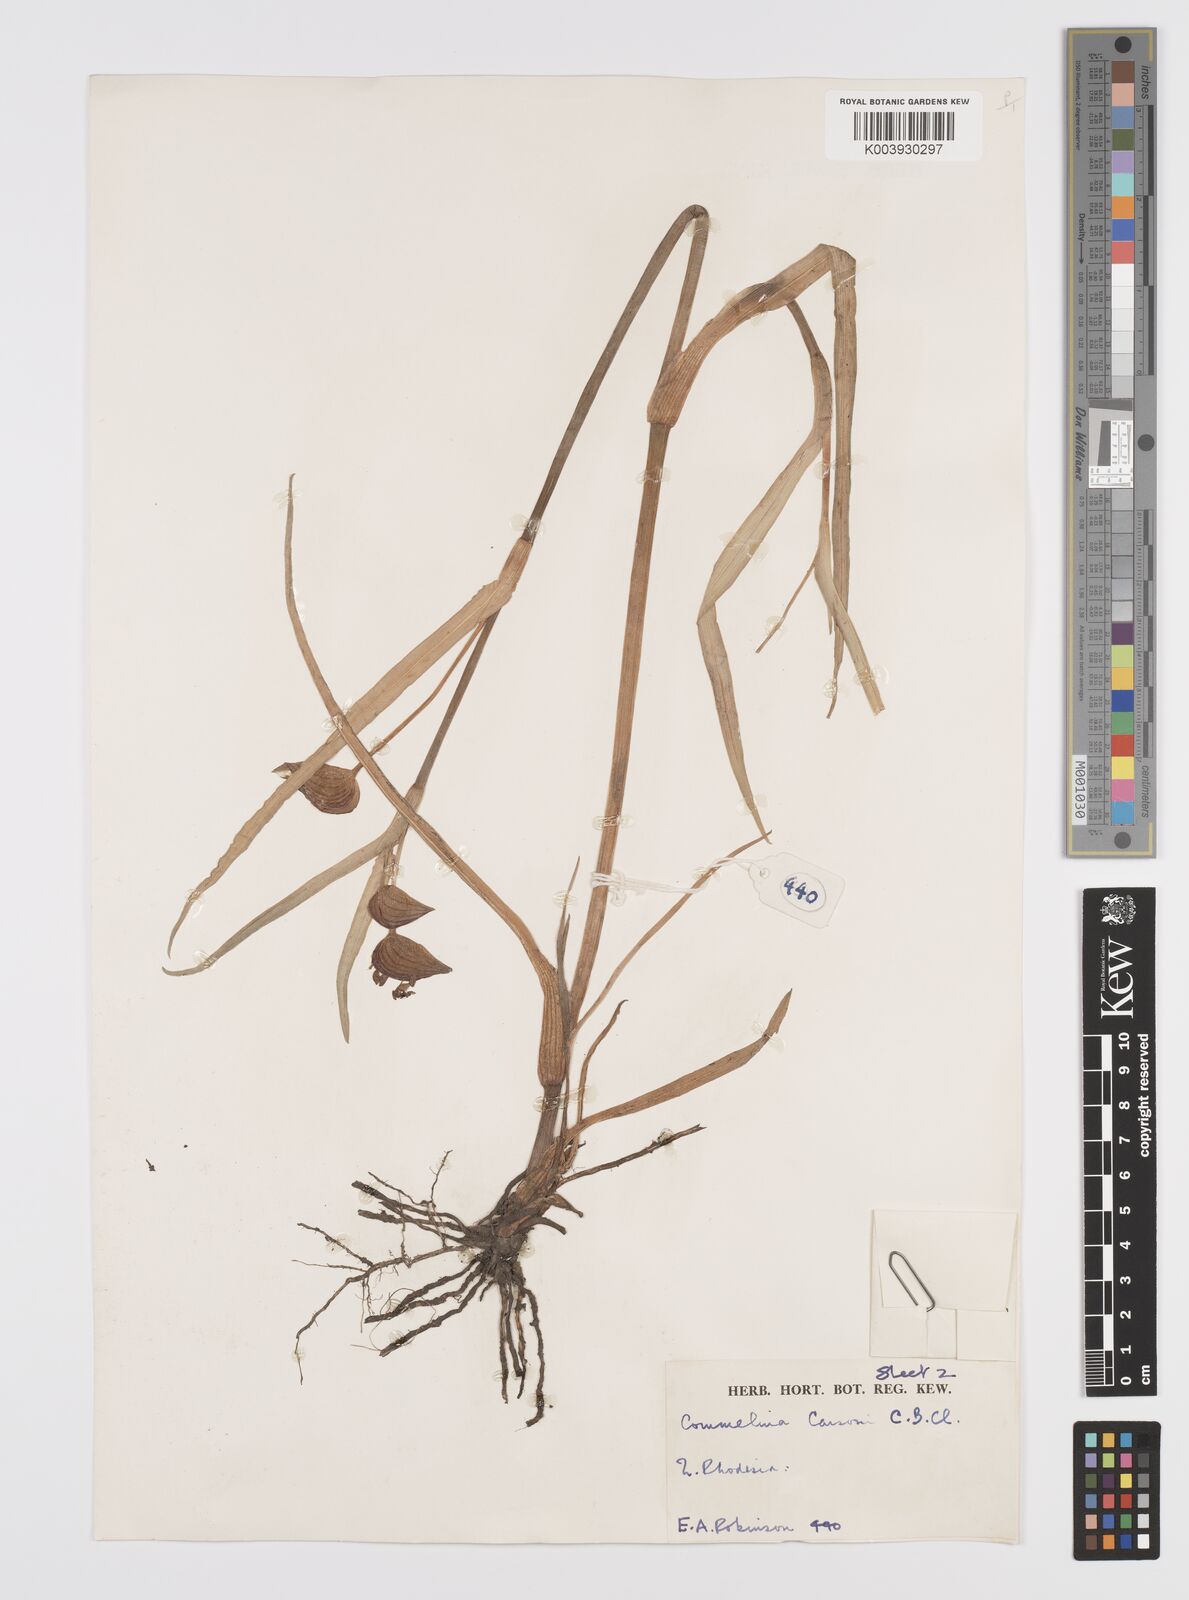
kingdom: Plantae
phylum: Tracheophyta
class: Liliopsida
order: Commelinales
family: Commelinaceae
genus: Commelina
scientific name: Commelina schweinfurthii
